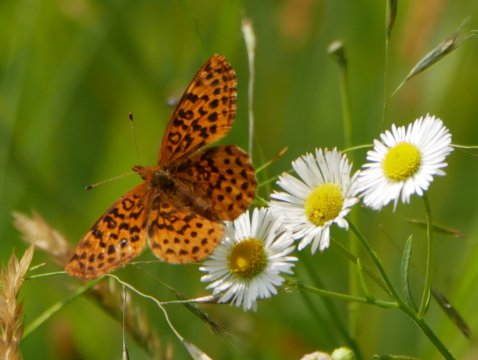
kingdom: Animalia
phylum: Arthropoda
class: Insecta
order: Lepidoptera
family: Nymphalidae
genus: Clossiana
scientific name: Clossiana toddi
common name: Meadow Fritillary
